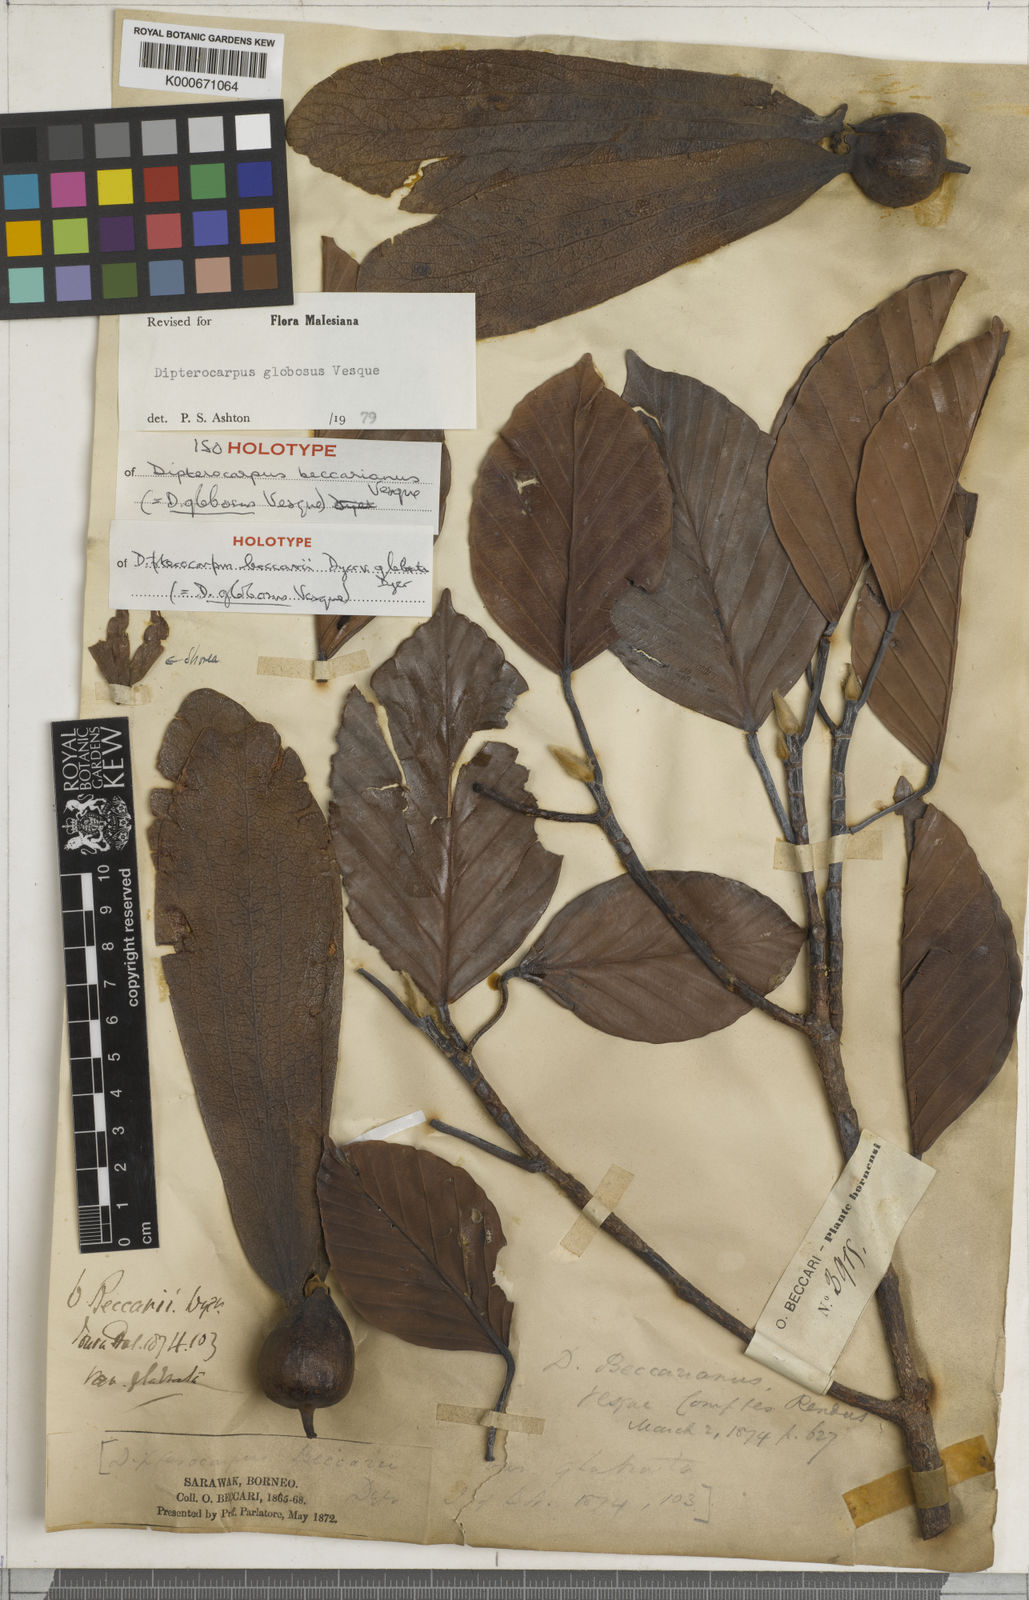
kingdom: Plantae
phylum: Tracheophyta
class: Magnoliopsida
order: Malvales
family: Dipterocarpaceae
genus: Dipterocarpus
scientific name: Dipterocarpus globosus
